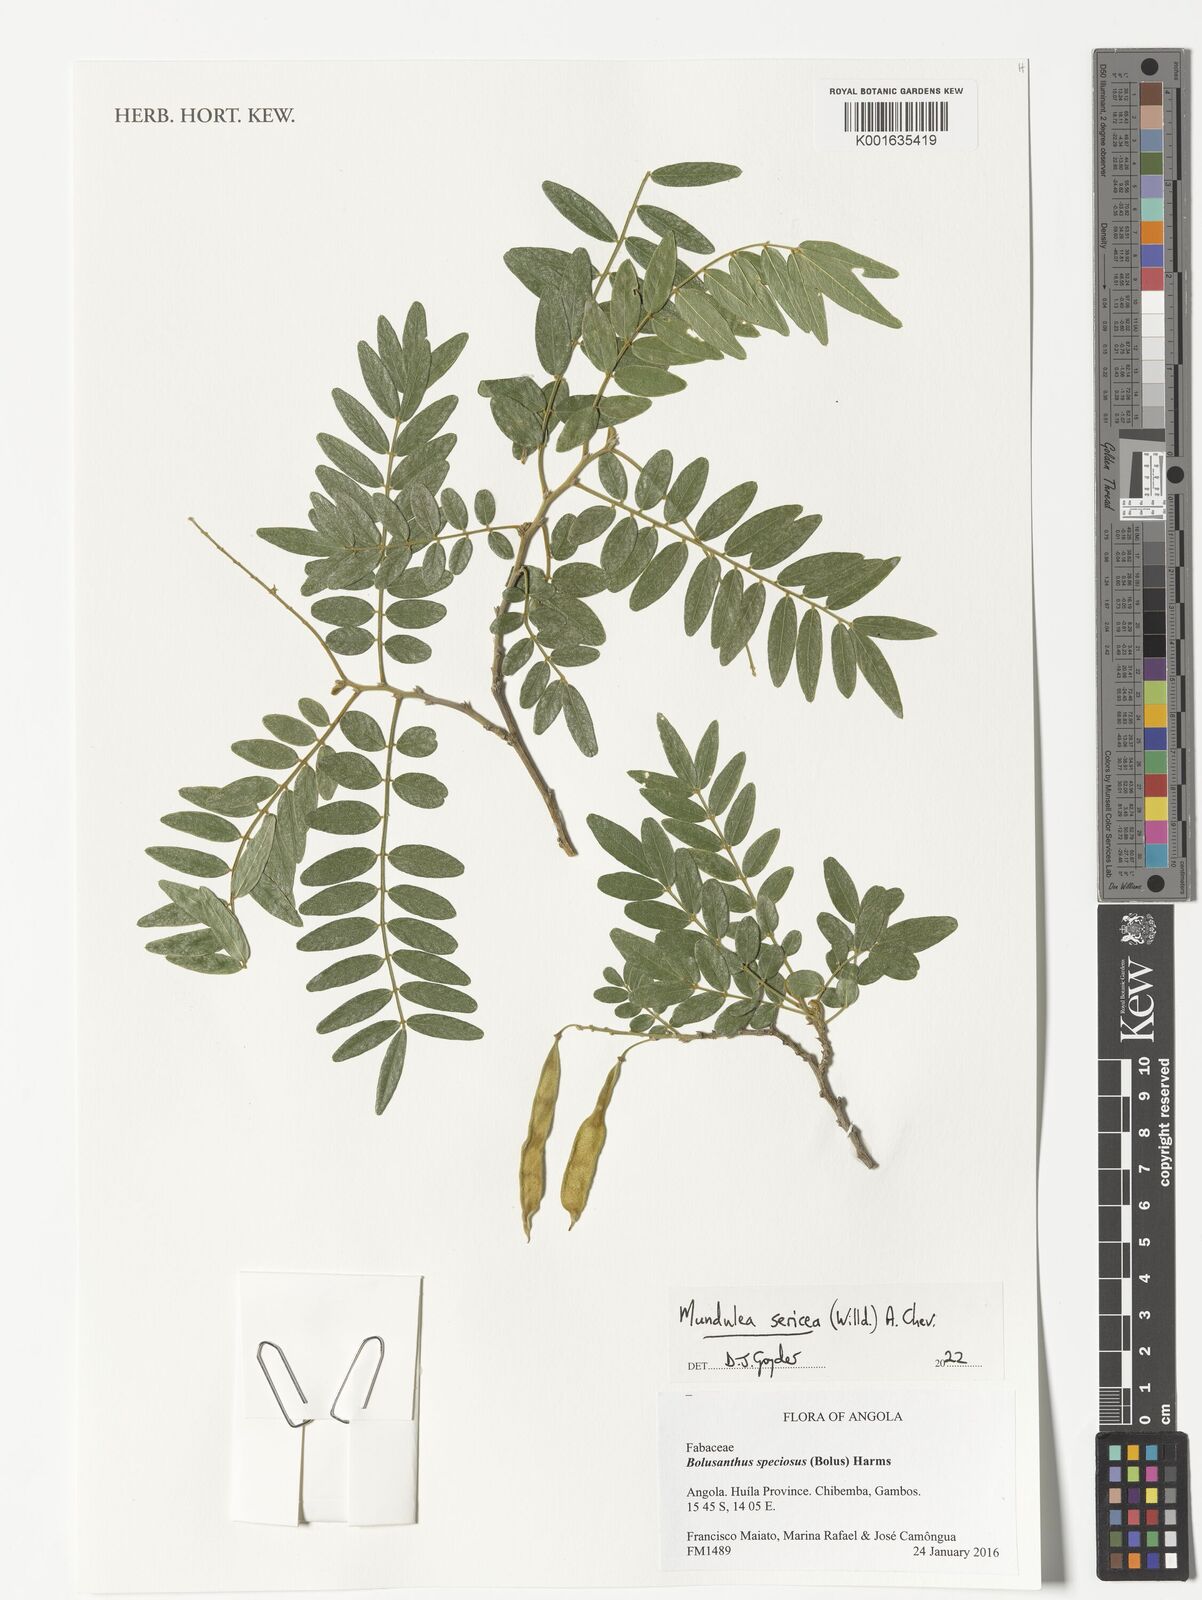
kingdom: Plantae
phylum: Tracheophyta
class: Magnoliopsida
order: Fabales
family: Fabaceae
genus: Mundulea
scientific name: Mundulea sericea
